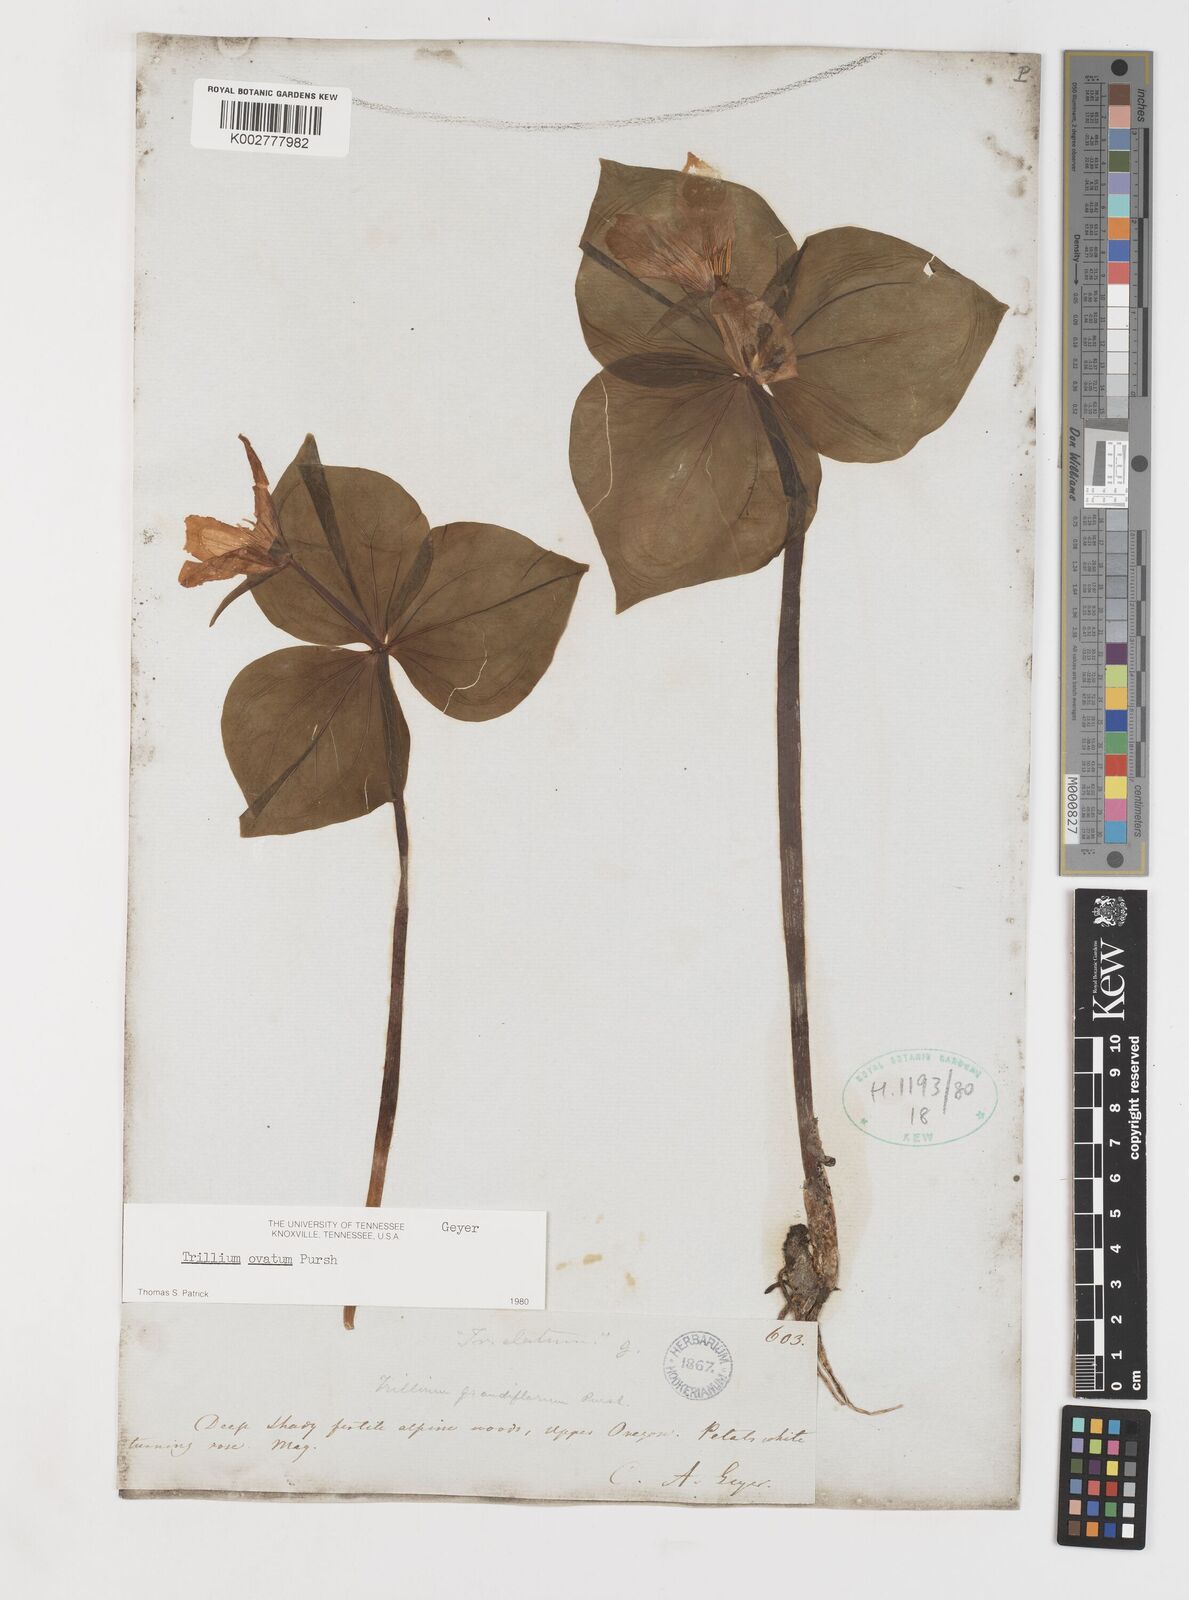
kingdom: Plantae
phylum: Tracheophyta
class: Liliopsida
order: Liliales
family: Melanthiaceae
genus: Trillium
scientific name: Trillium ovatum
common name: Pacific trillium
